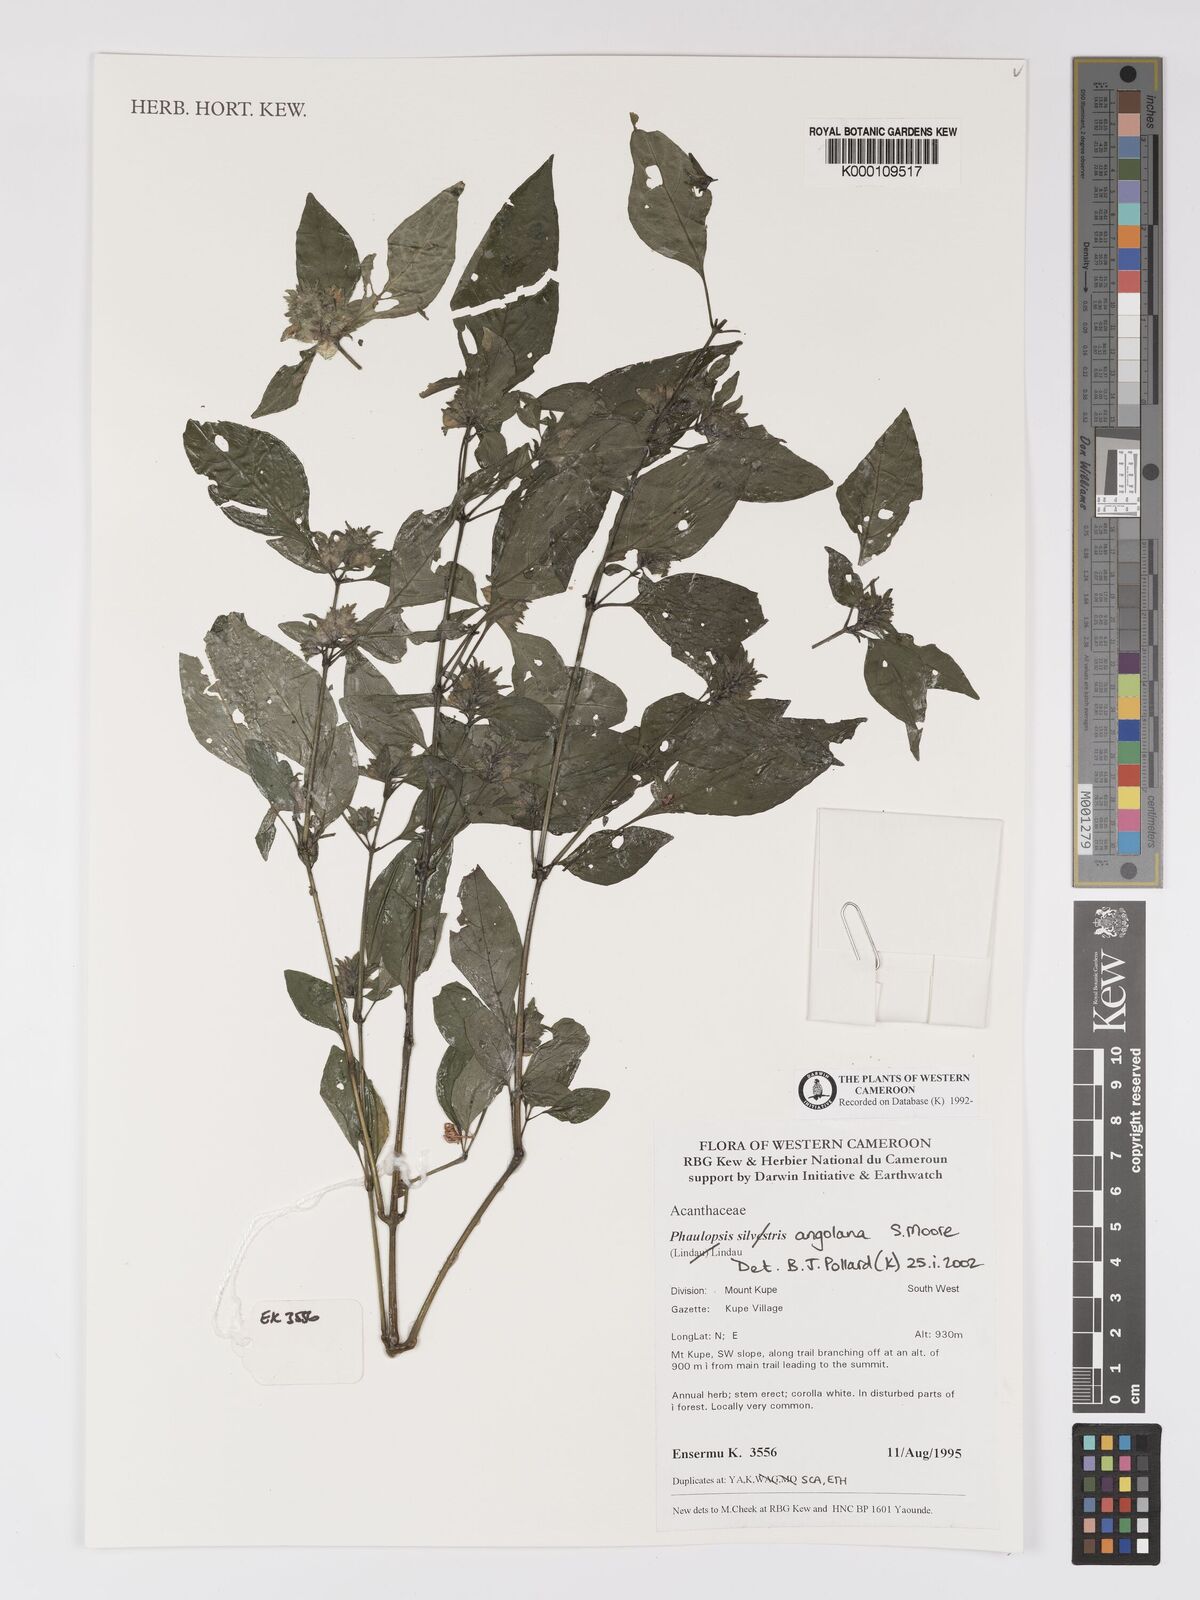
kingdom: Plantae
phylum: Tracheophyta
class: Magnoliopsida
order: Lamiales
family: Acanthaceae
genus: Phaulopsis
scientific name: Phaulopsis angolana
